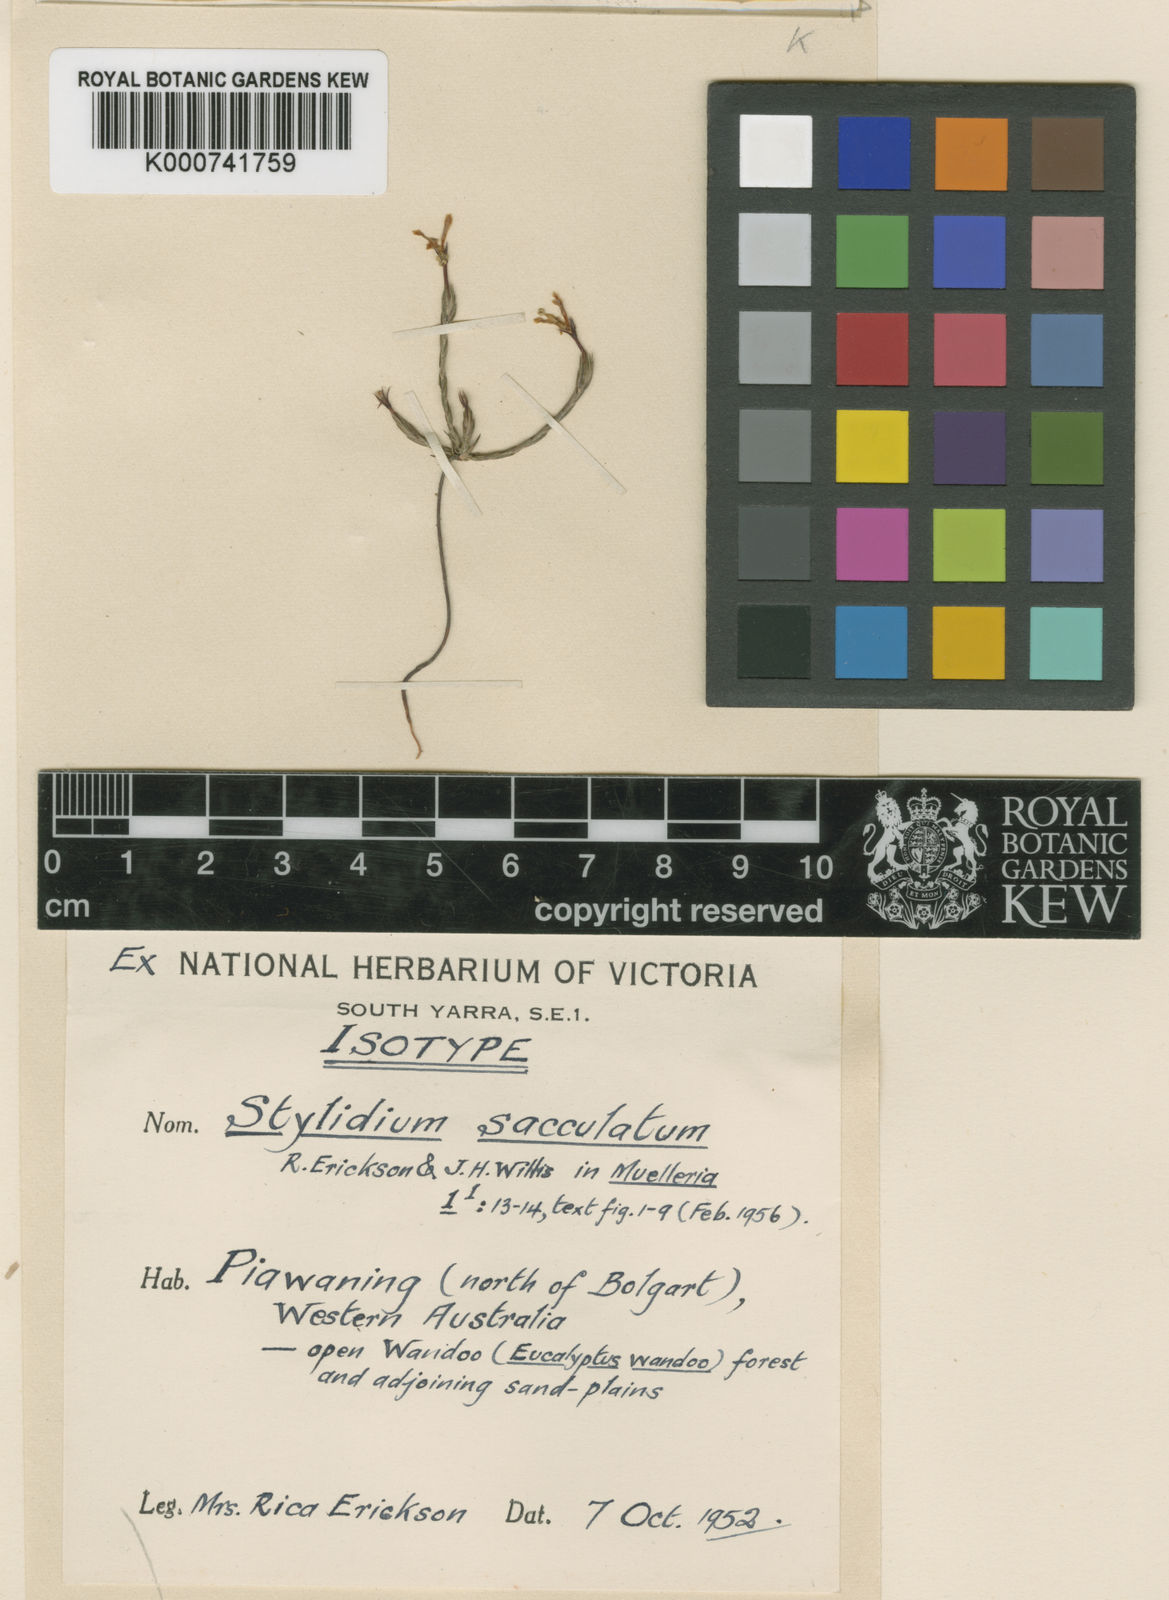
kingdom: Plantae
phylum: Tracheophyta
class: Magnoliopsida
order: Asterales
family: Stylidiaceae
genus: Stylidium
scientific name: Stylidium sacculatum
